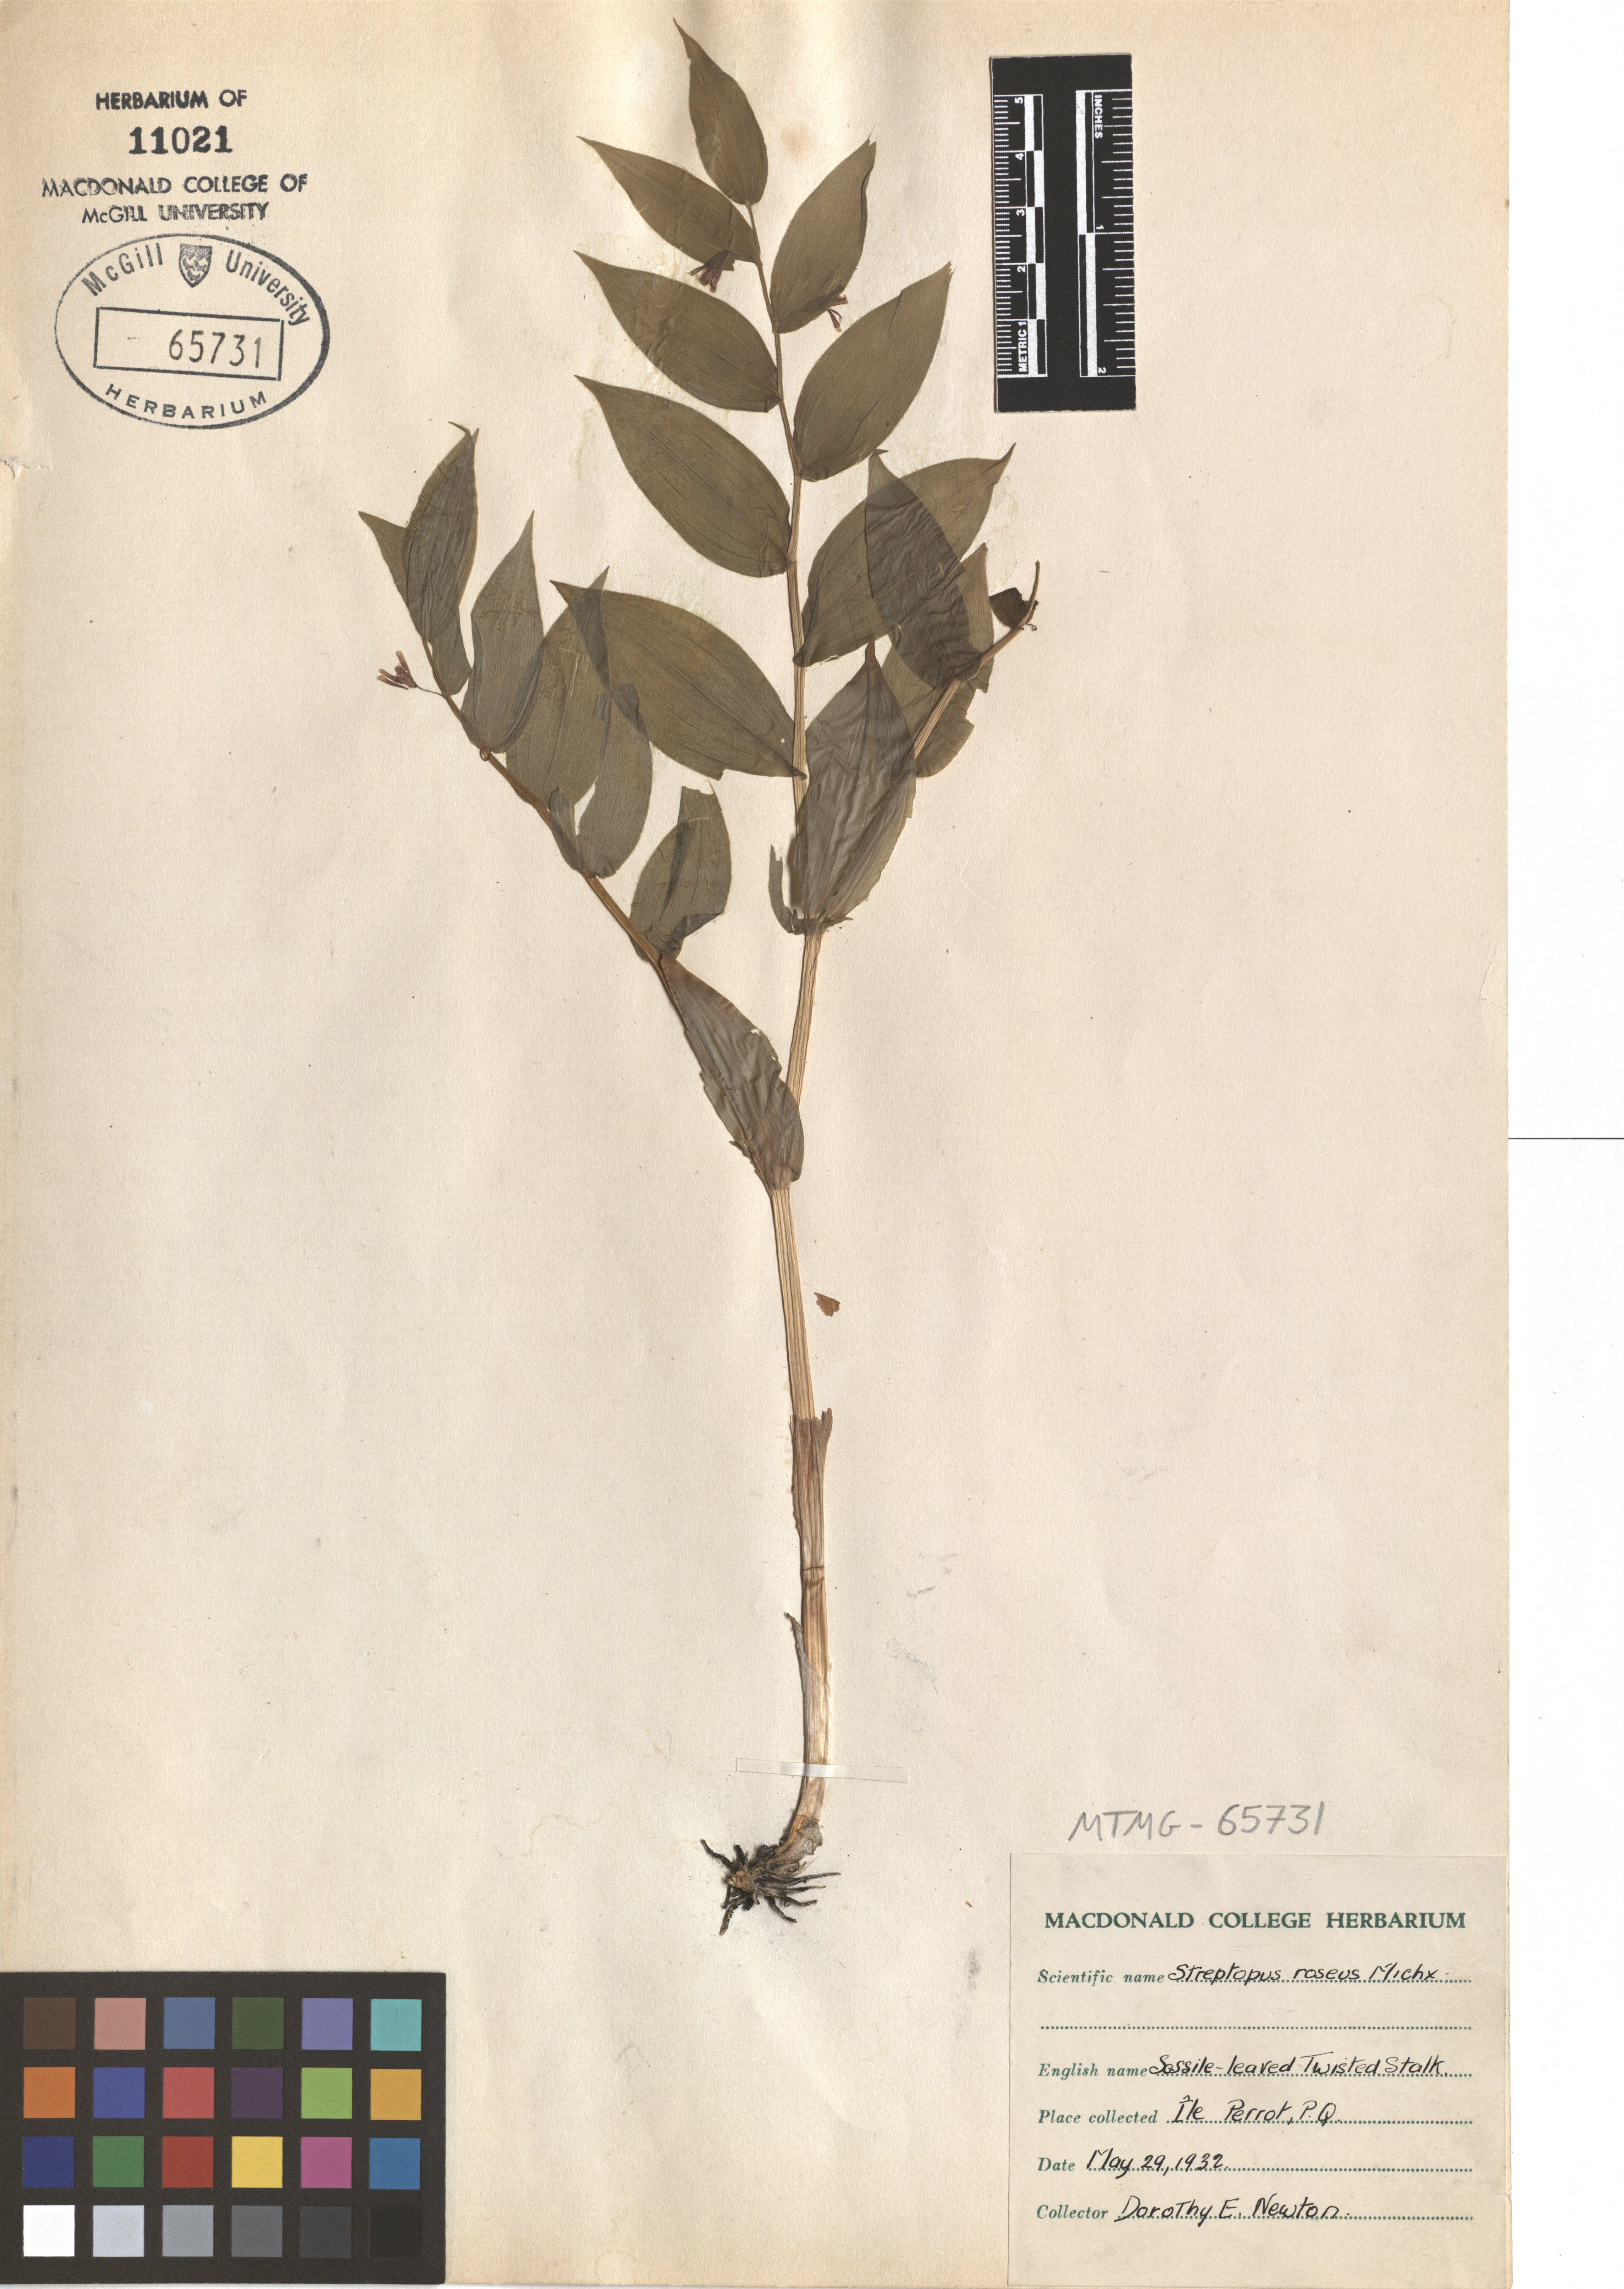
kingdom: Plantae
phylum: Tracheophyta
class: Liliopsida
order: Liliales
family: Liliaceae
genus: Streptopus
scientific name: Streptopus lanceolatus
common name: Rose mandarin
